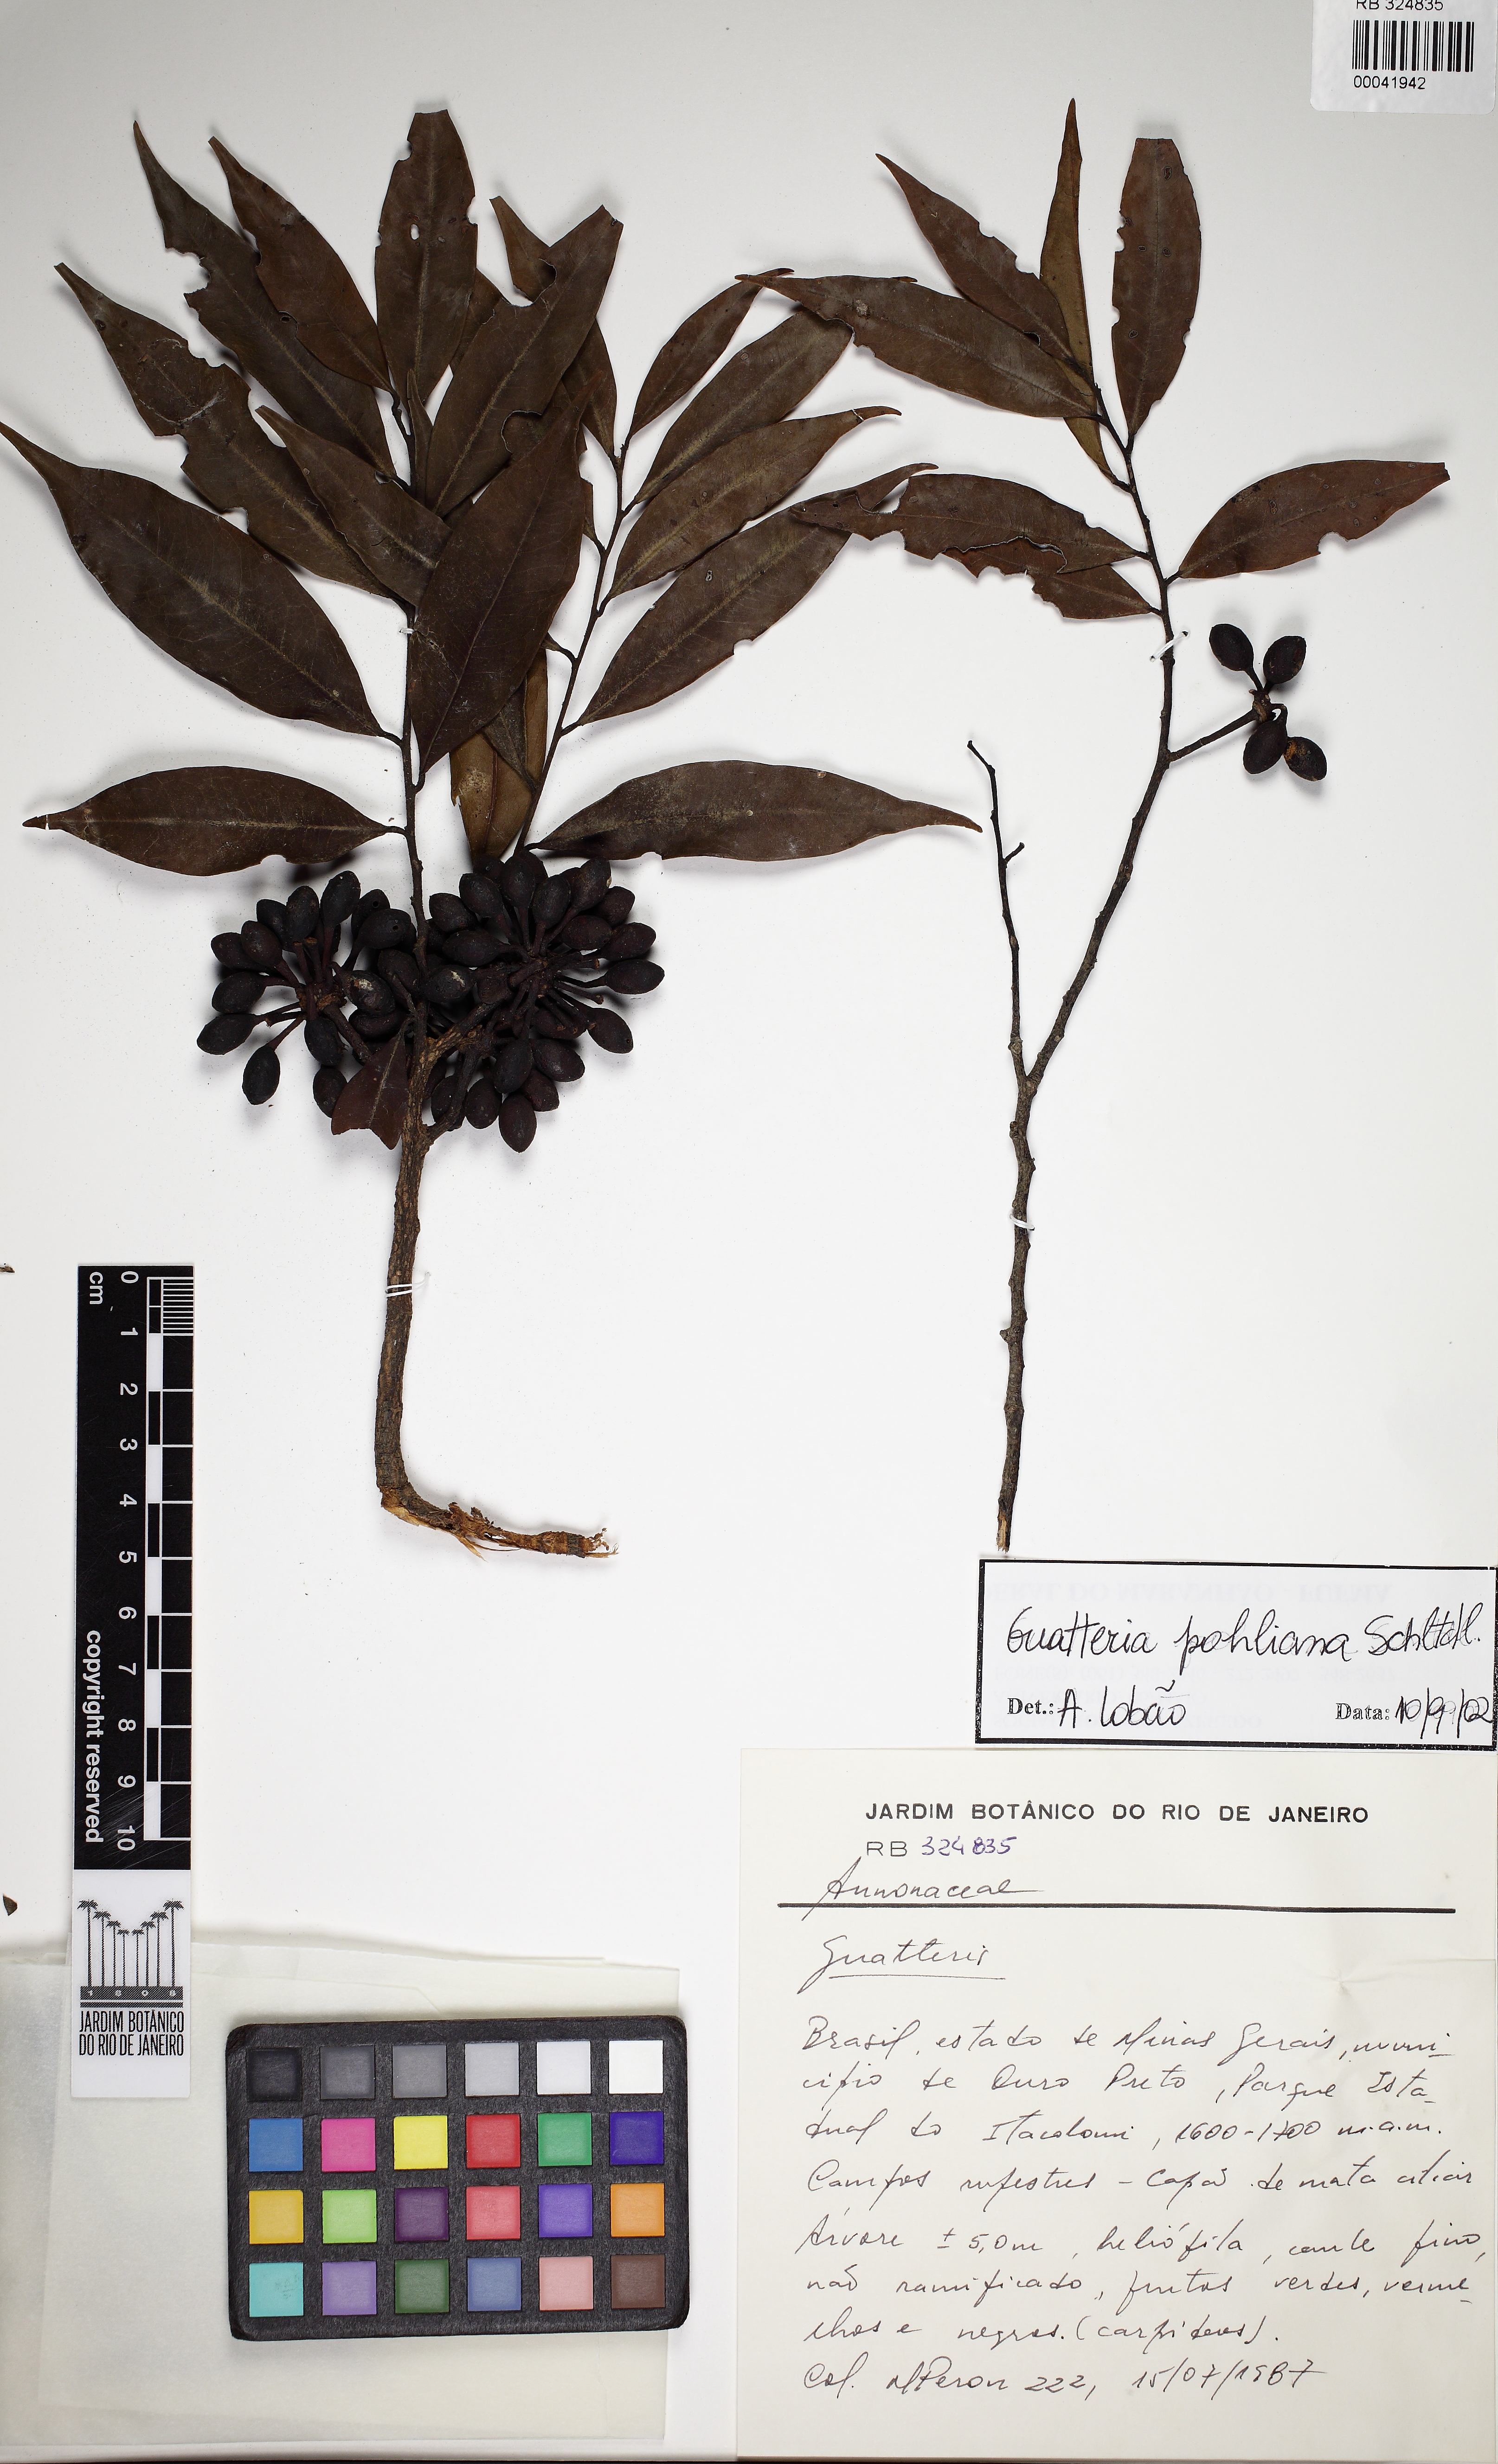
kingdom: Plantae
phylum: Tracheophyta
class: Magnoliopsida
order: Magnoliales
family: Annonaceae
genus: Guatteria
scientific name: Guatteria pohliana
